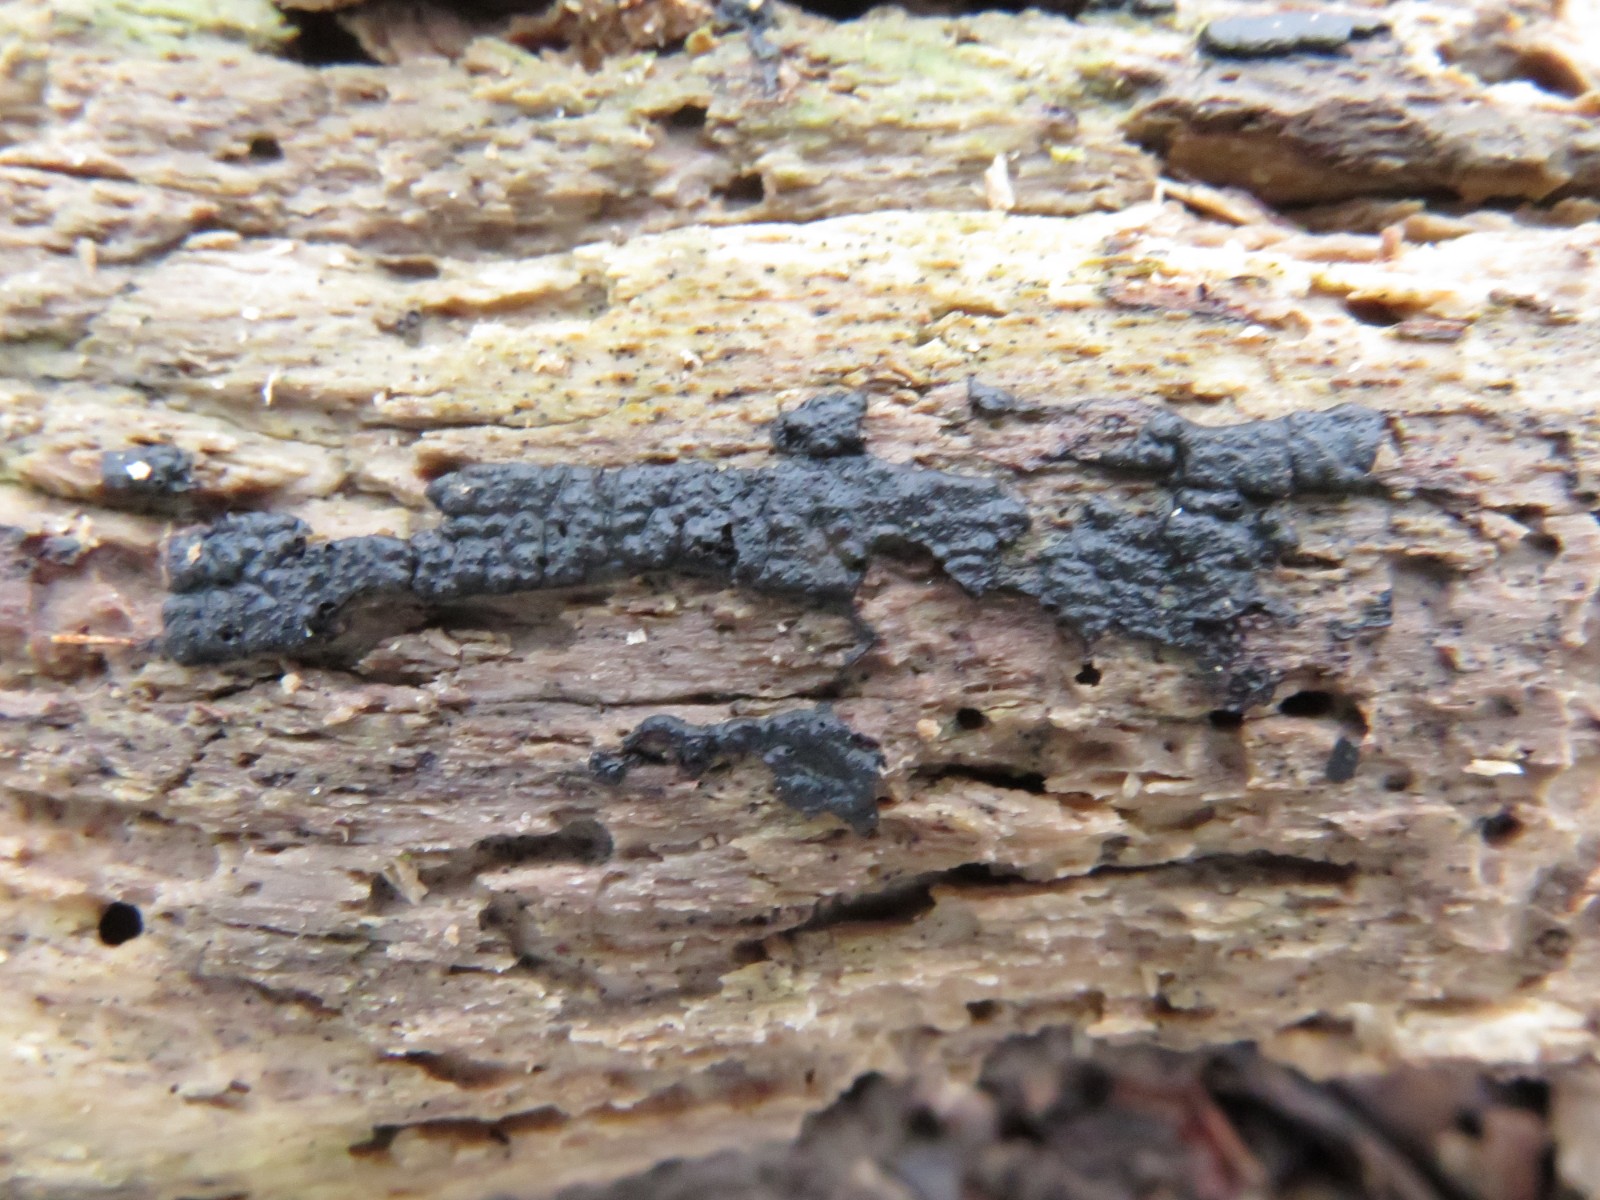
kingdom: Fungi
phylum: Ascomycota
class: Sordariomycetes
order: Xylariales
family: Xylariaceae
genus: Nemania
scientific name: Nemania serpens
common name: almindelig kuldyne
